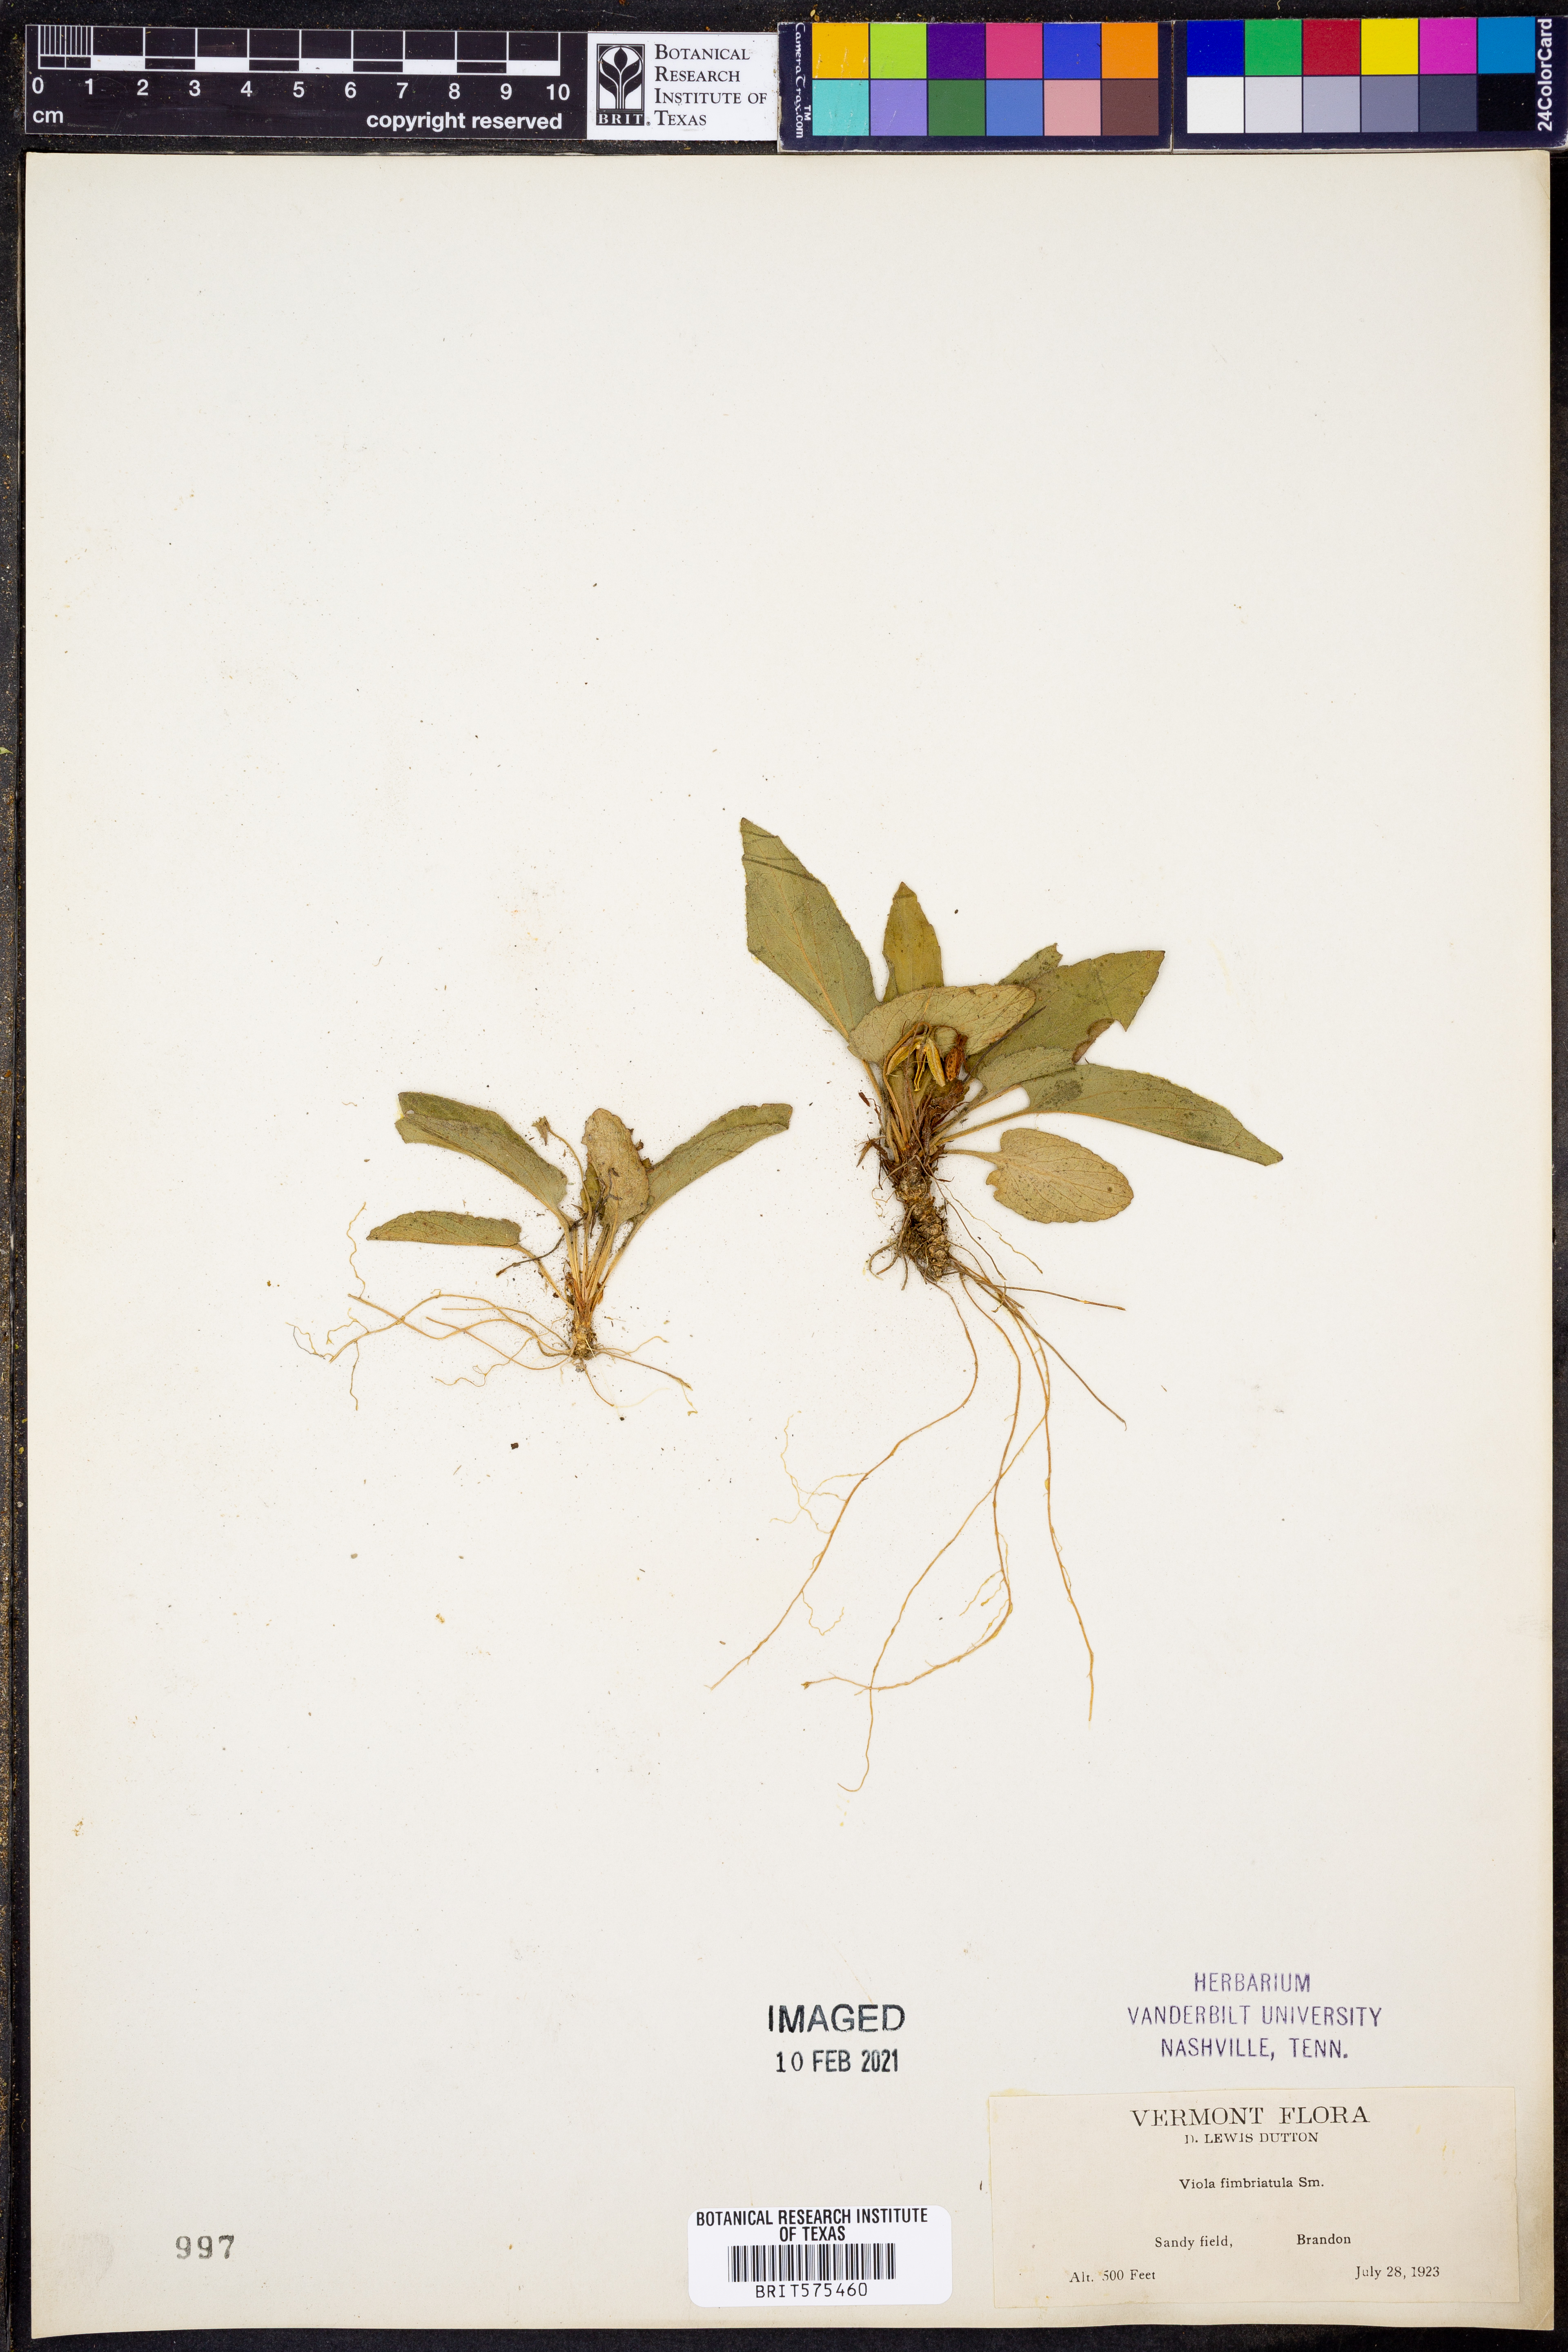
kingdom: Plantae
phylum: Tracheophyta
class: Magnoliopsida
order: Malpighiales
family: Violaceae
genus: Viola
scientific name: Viola fimbriatula
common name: Sand violet
